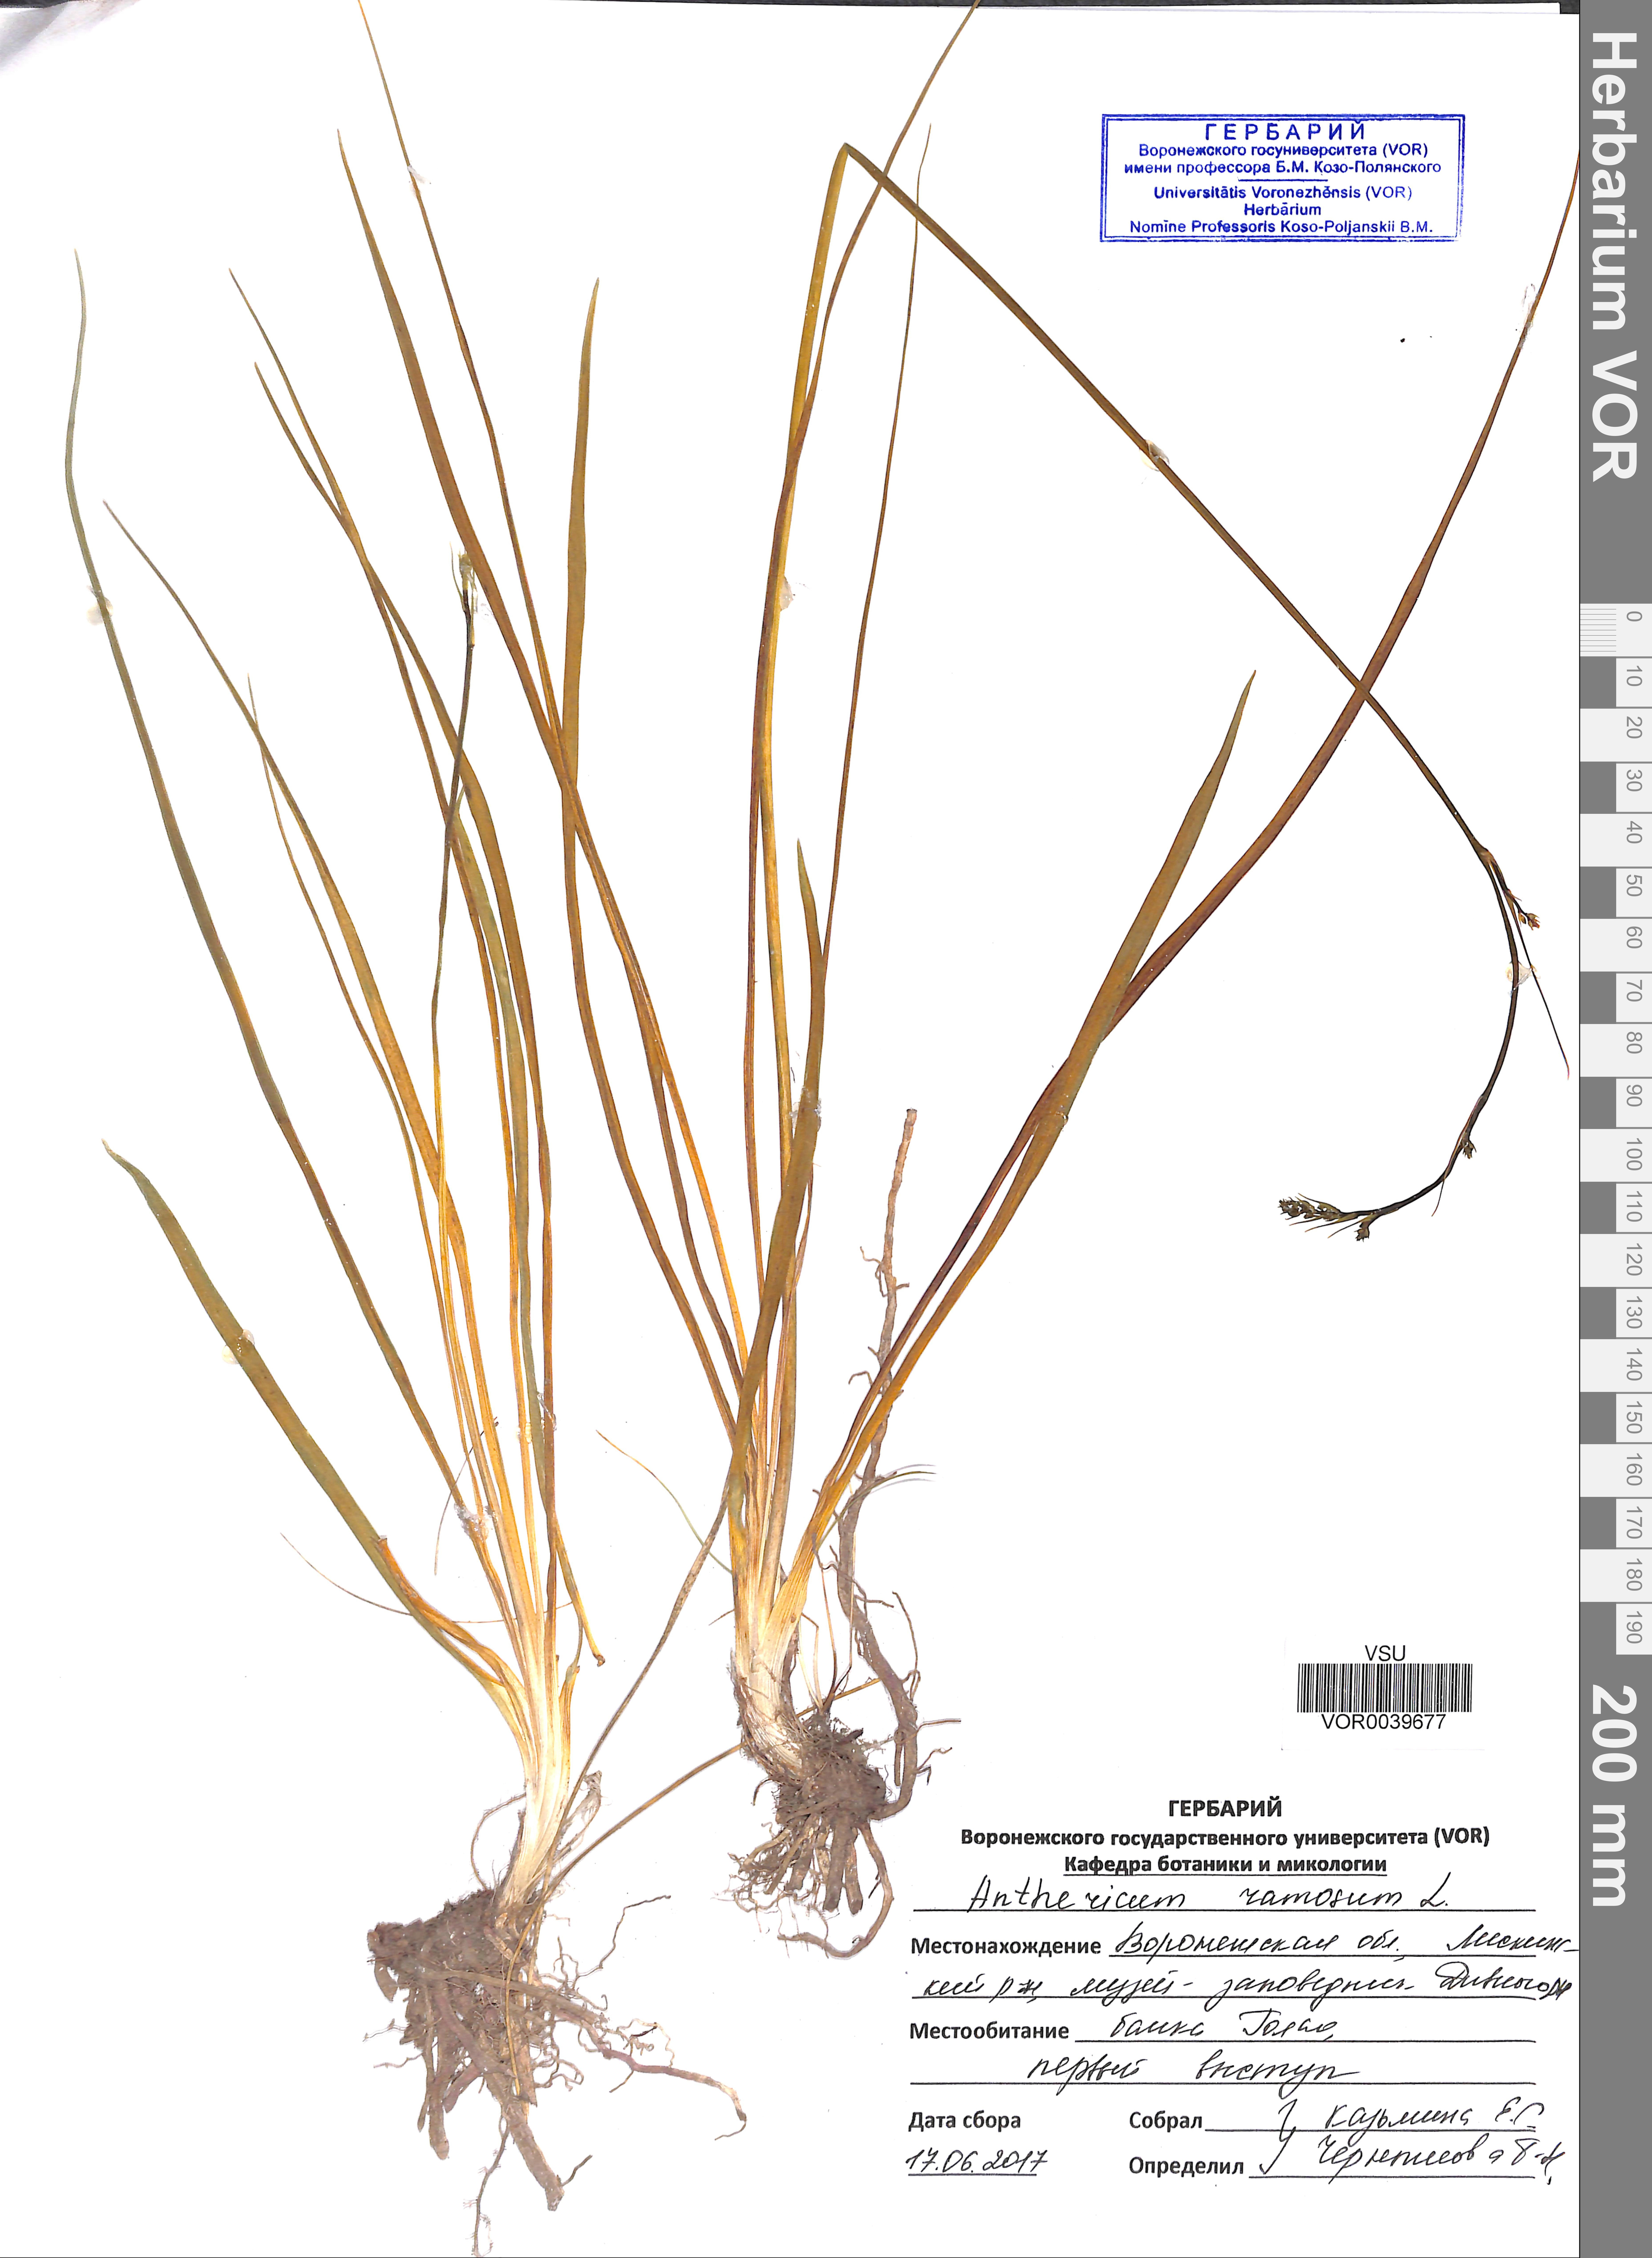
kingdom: Plantae
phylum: Tracheophyta
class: Liliopsida
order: Asparagales
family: Asparagaceae
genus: Anthericum
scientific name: Anthericum ramosum
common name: Branched st. bernard's-lily
